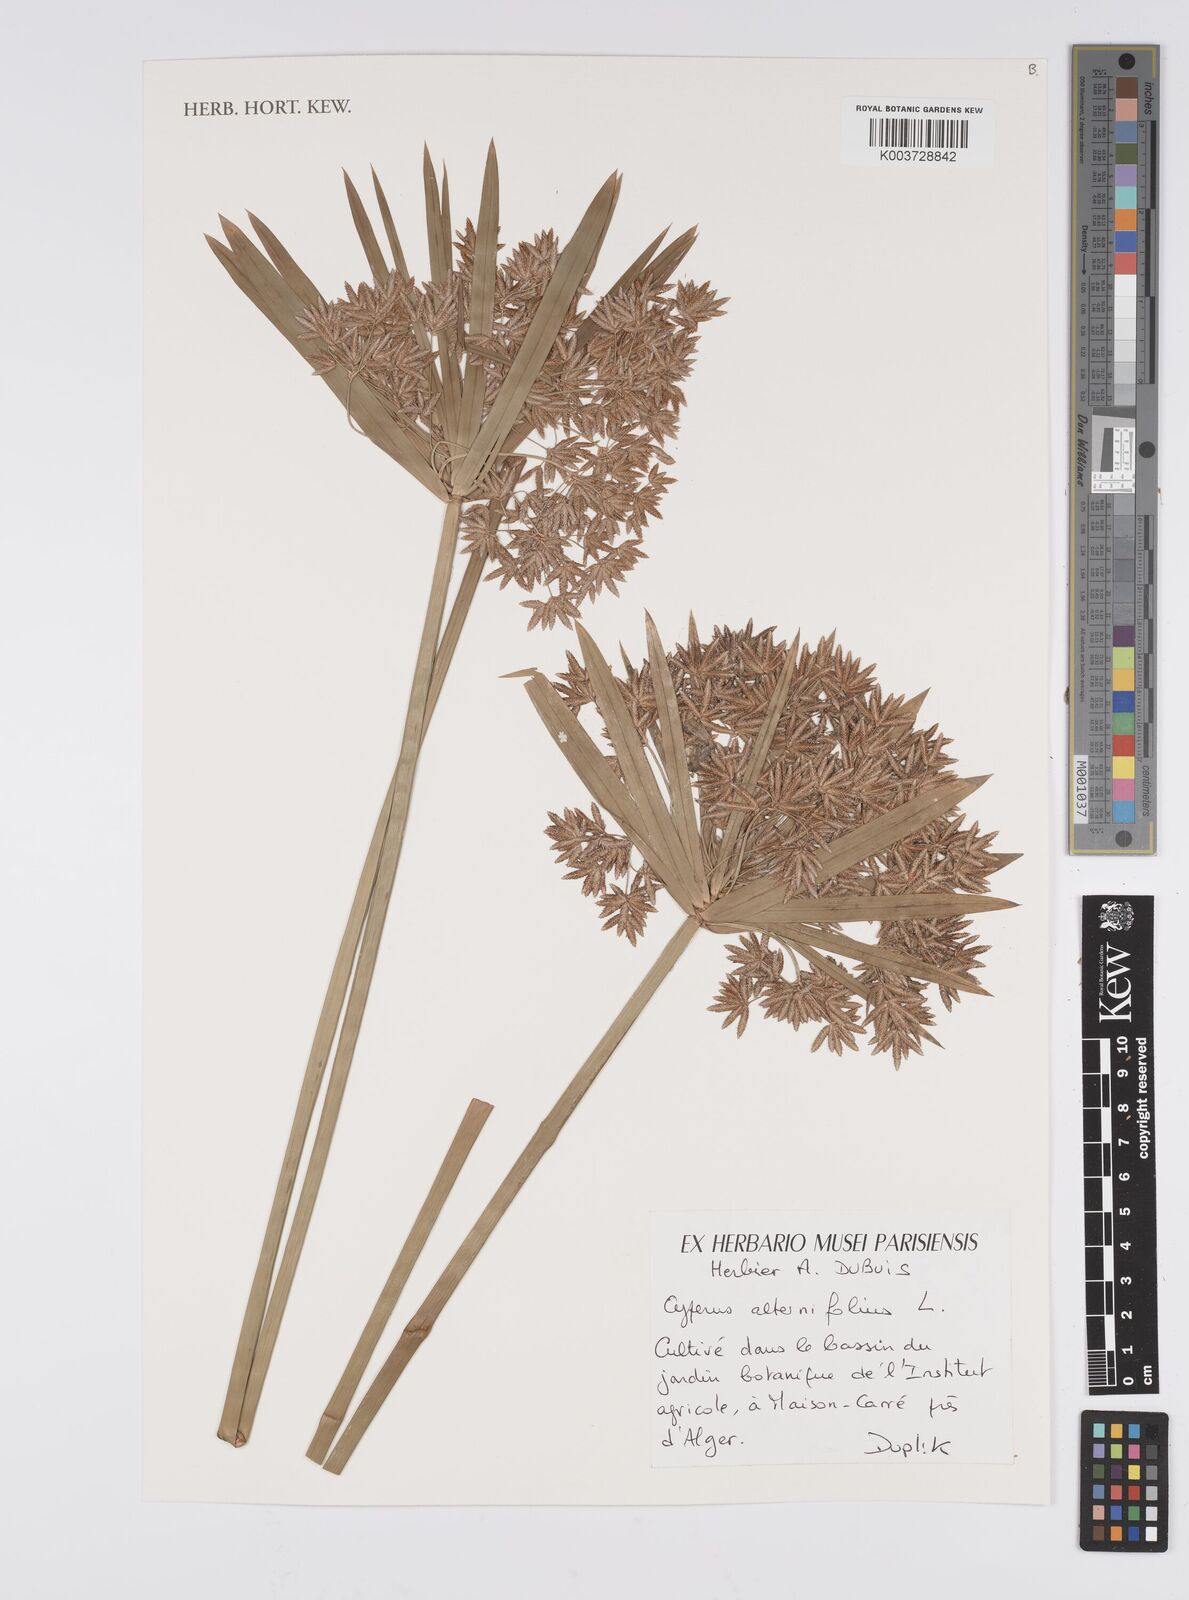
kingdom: Plantae
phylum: Tracheophyta
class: Liliopsida
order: Poales
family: Cyperaceae
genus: Cyperus
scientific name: Cyperus alternifolius
